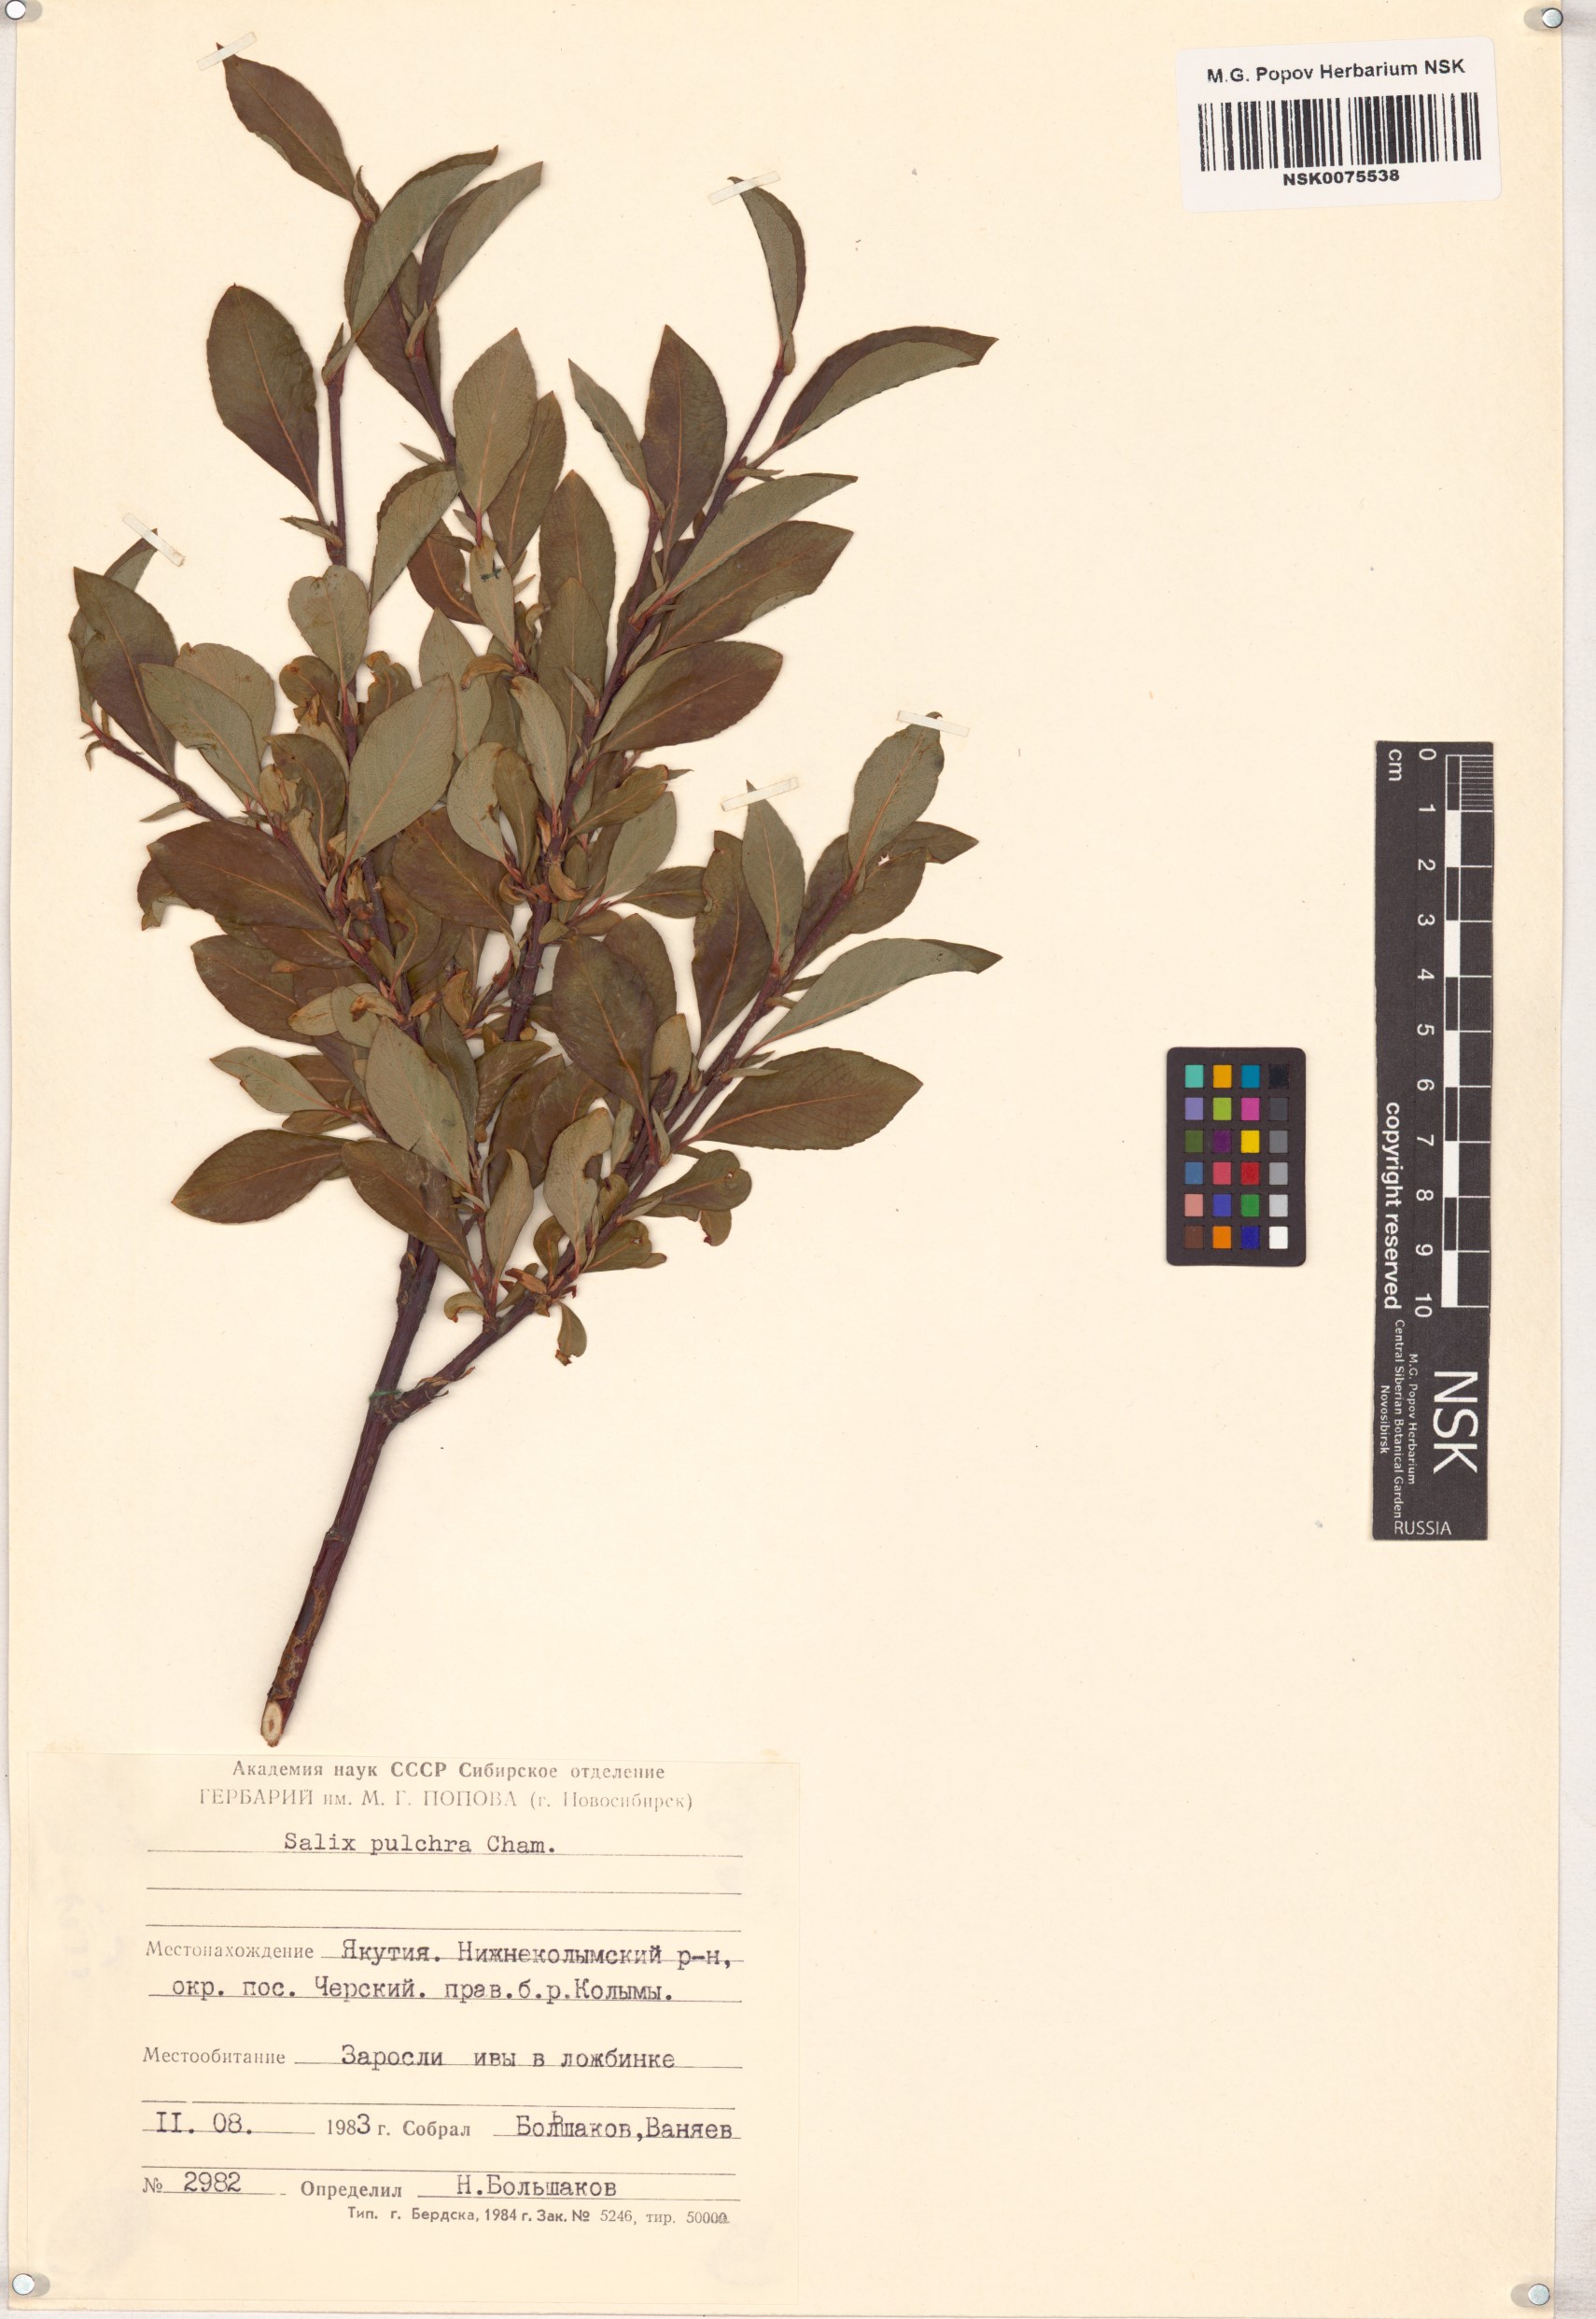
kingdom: Plantae
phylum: Tracheophyta
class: Magnoliopsida
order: Malpighiales
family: Salicaceae
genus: Salix
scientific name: Salix pulchra
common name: Diamond-leaved willow
